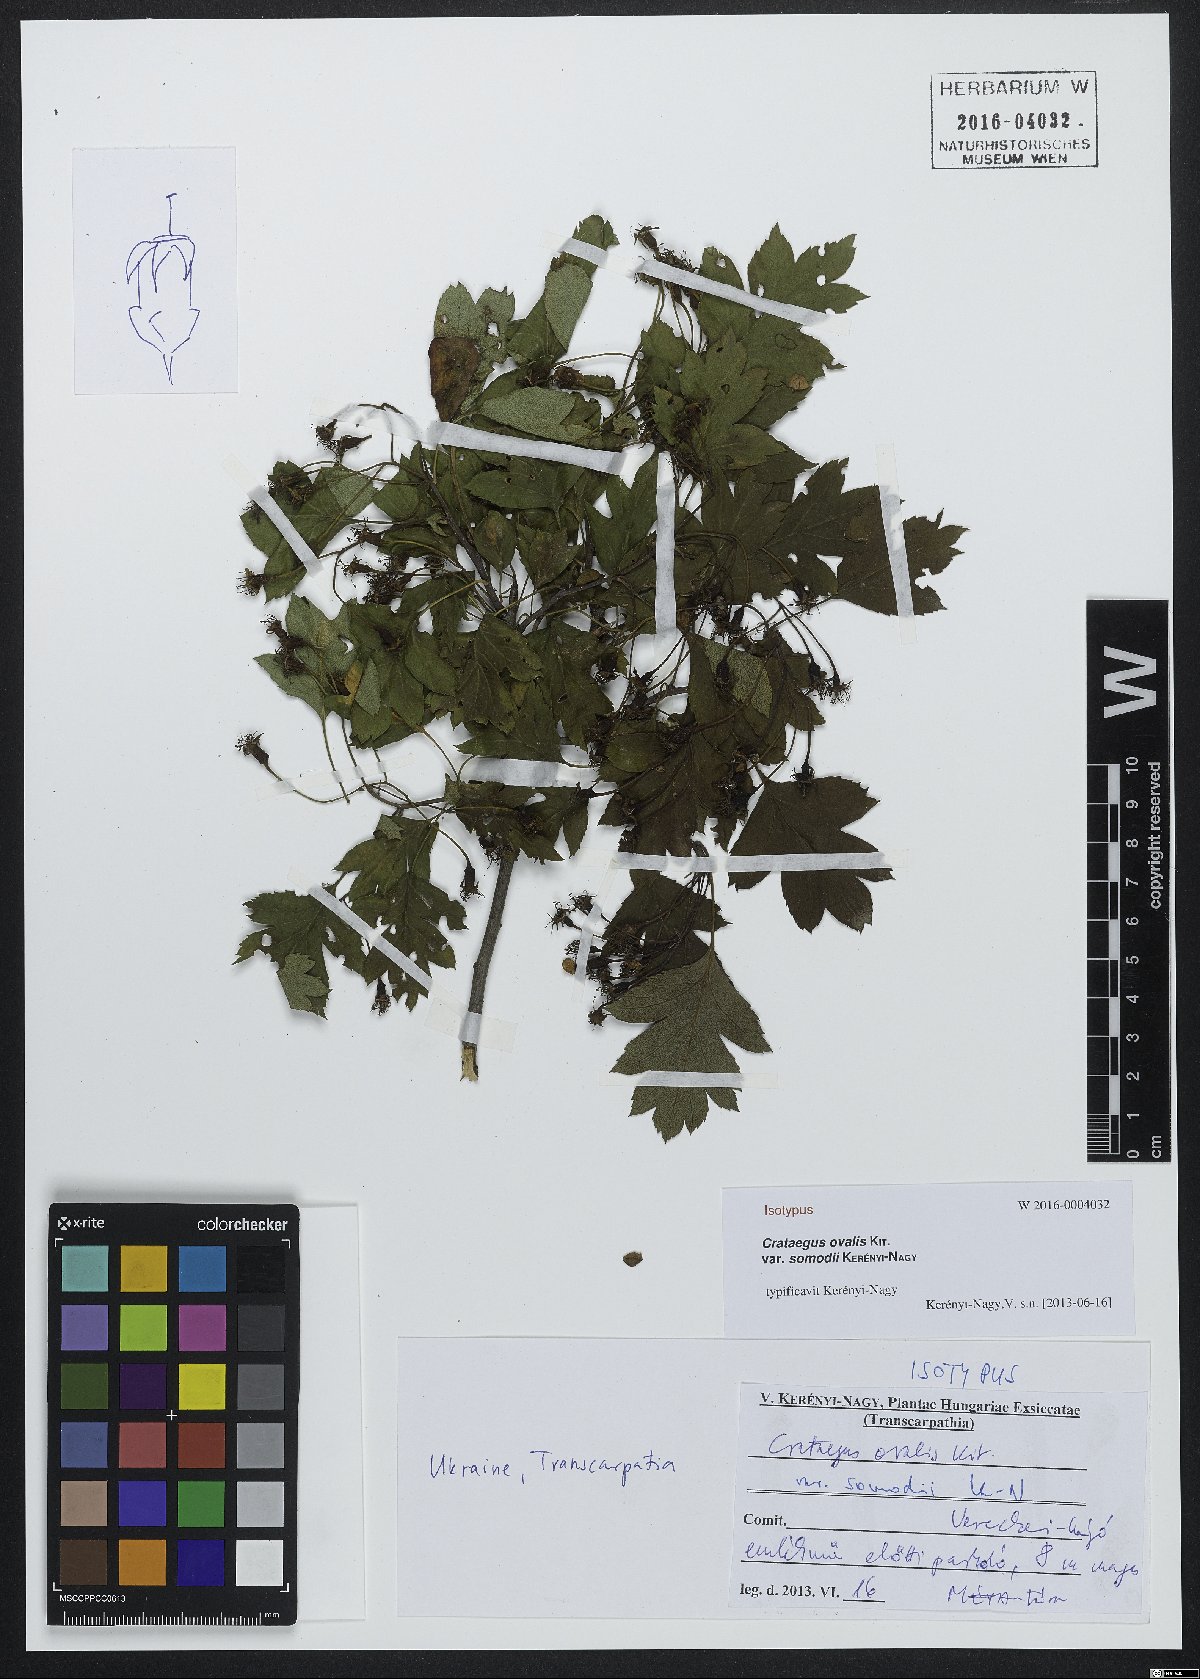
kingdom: Plantae
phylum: Tracheophyta
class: Magnoliopsida
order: Rosales
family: Rosaceae
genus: Crataegus
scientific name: Crataegus macrocarpa
